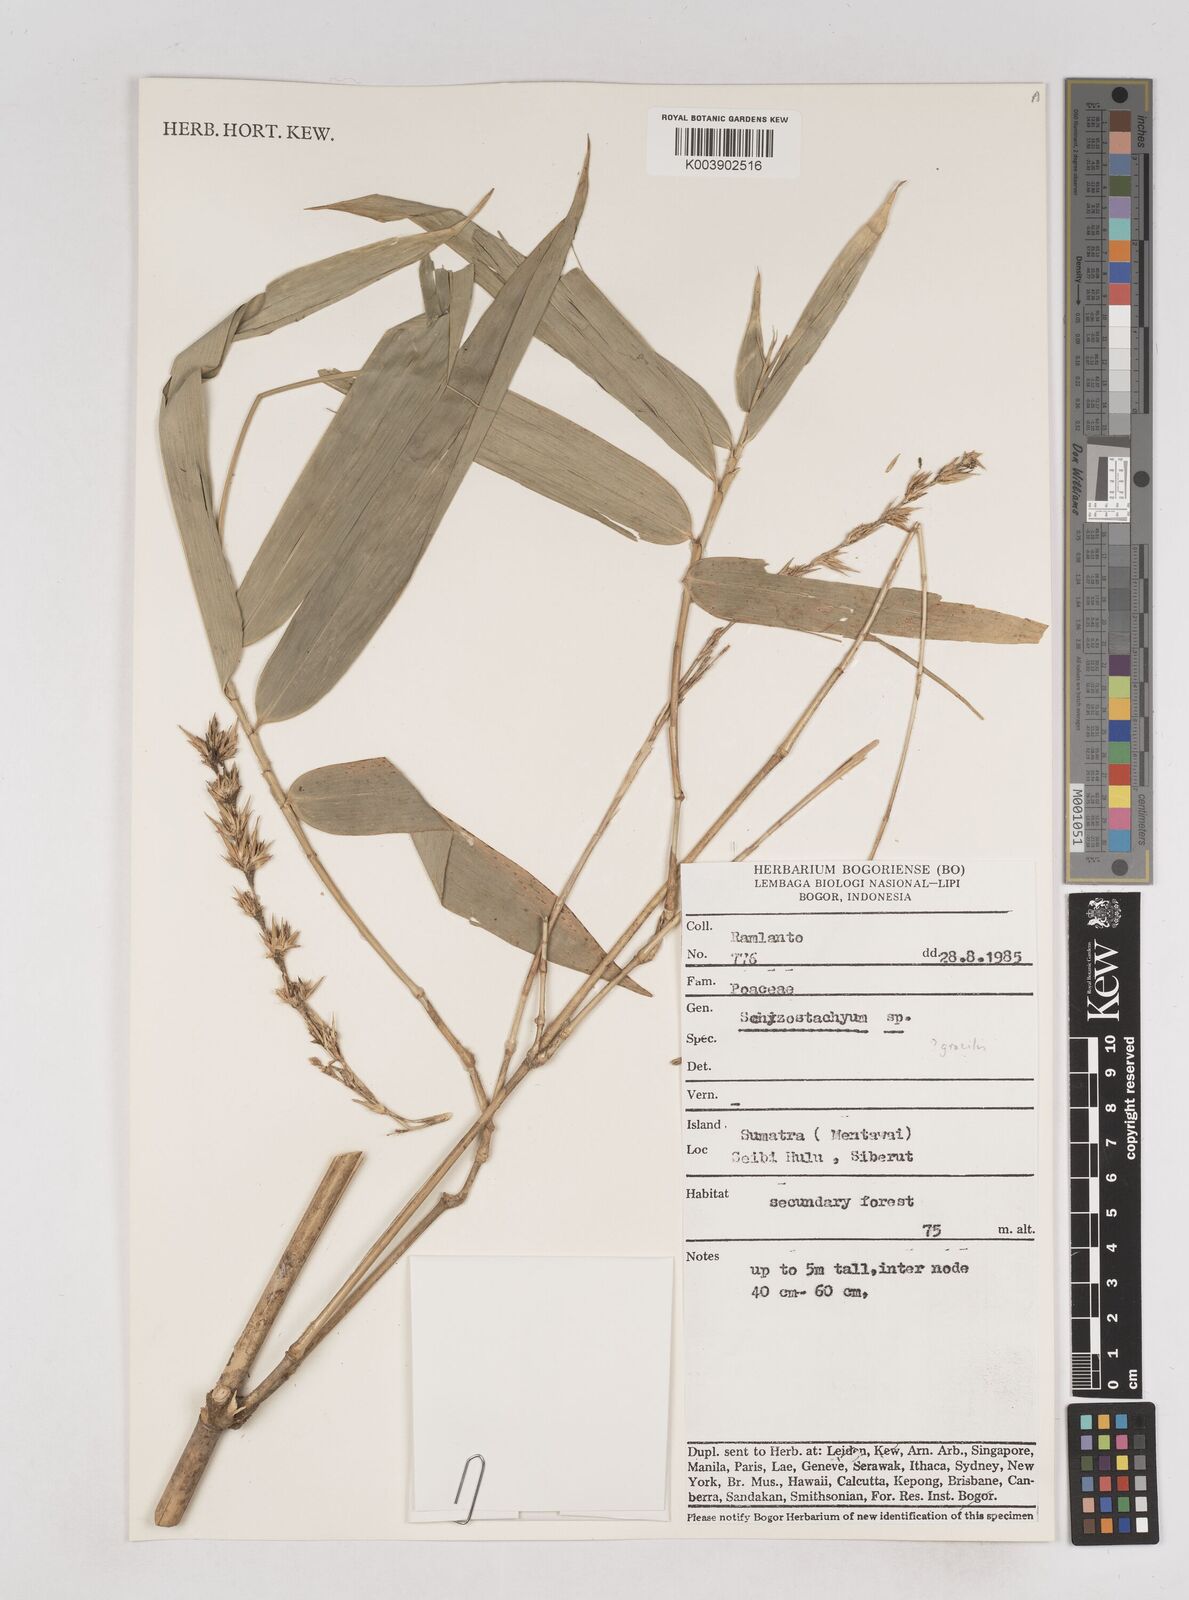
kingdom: Plantae
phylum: Tracheophyta
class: Liliopsida
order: Poales
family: Poaceae
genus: Schizostachyum
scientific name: Schizostachyum
